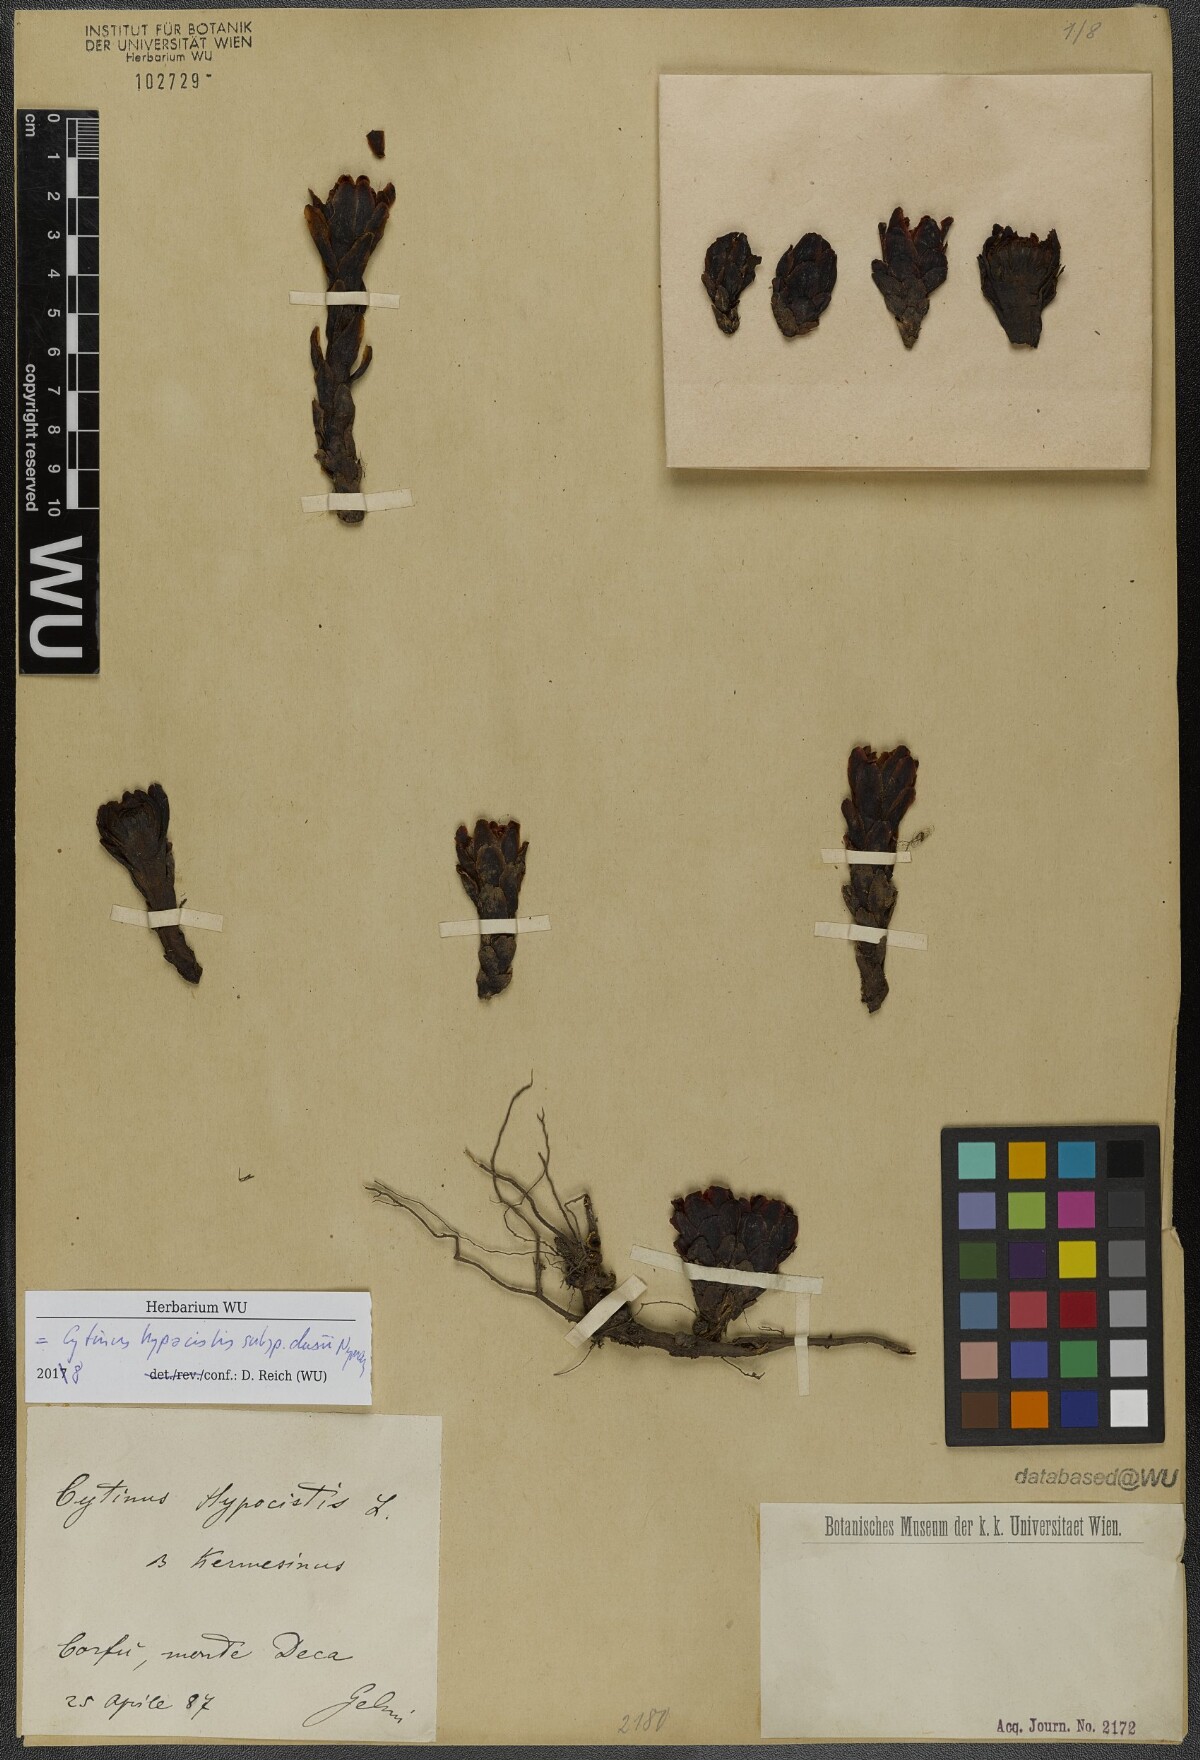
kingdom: Plantae
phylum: Tracheophyta
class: Magnoliopsida
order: Malvales
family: Cytinaceae
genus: Cytinus
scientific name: Cytinus ruber
